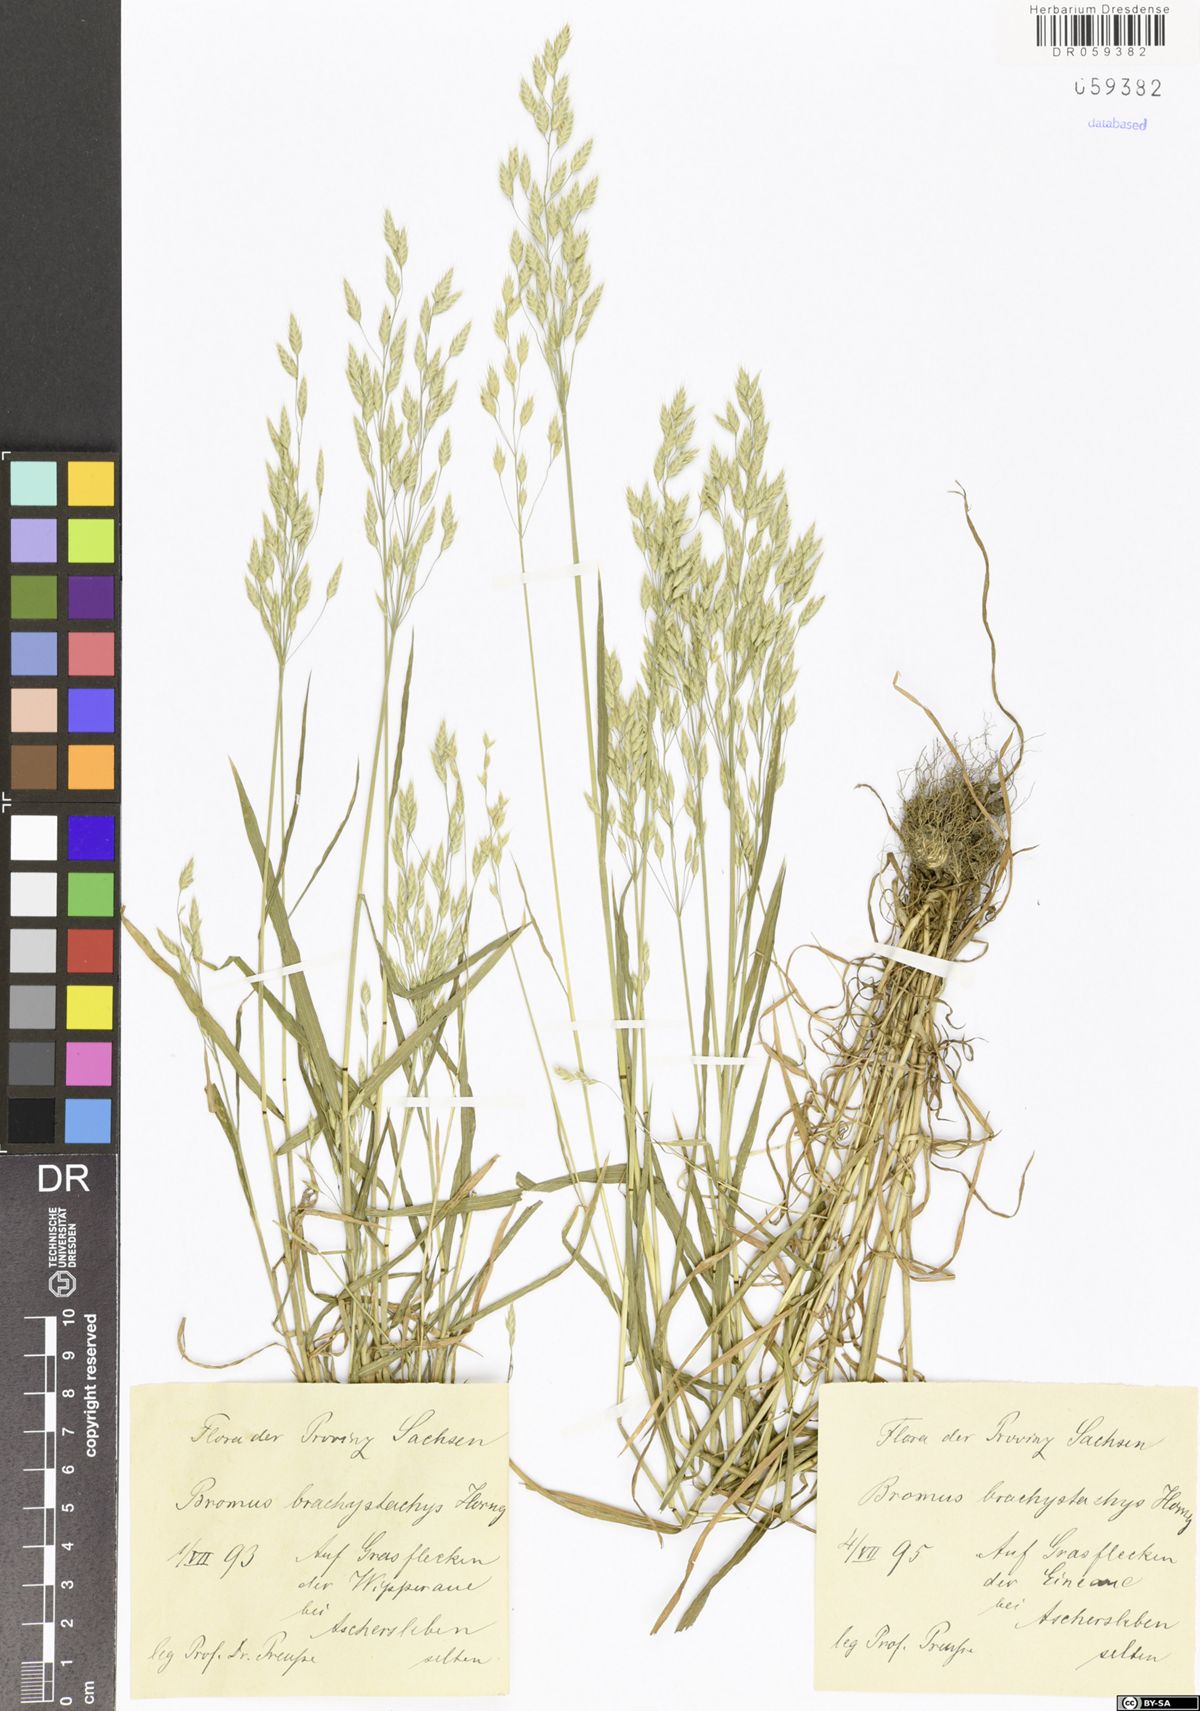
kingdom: Plantae
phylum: Tracheophyta
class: Liliopsida
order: Poales
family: Poaceae
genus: Bromus
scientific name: Bromus brachystachys
